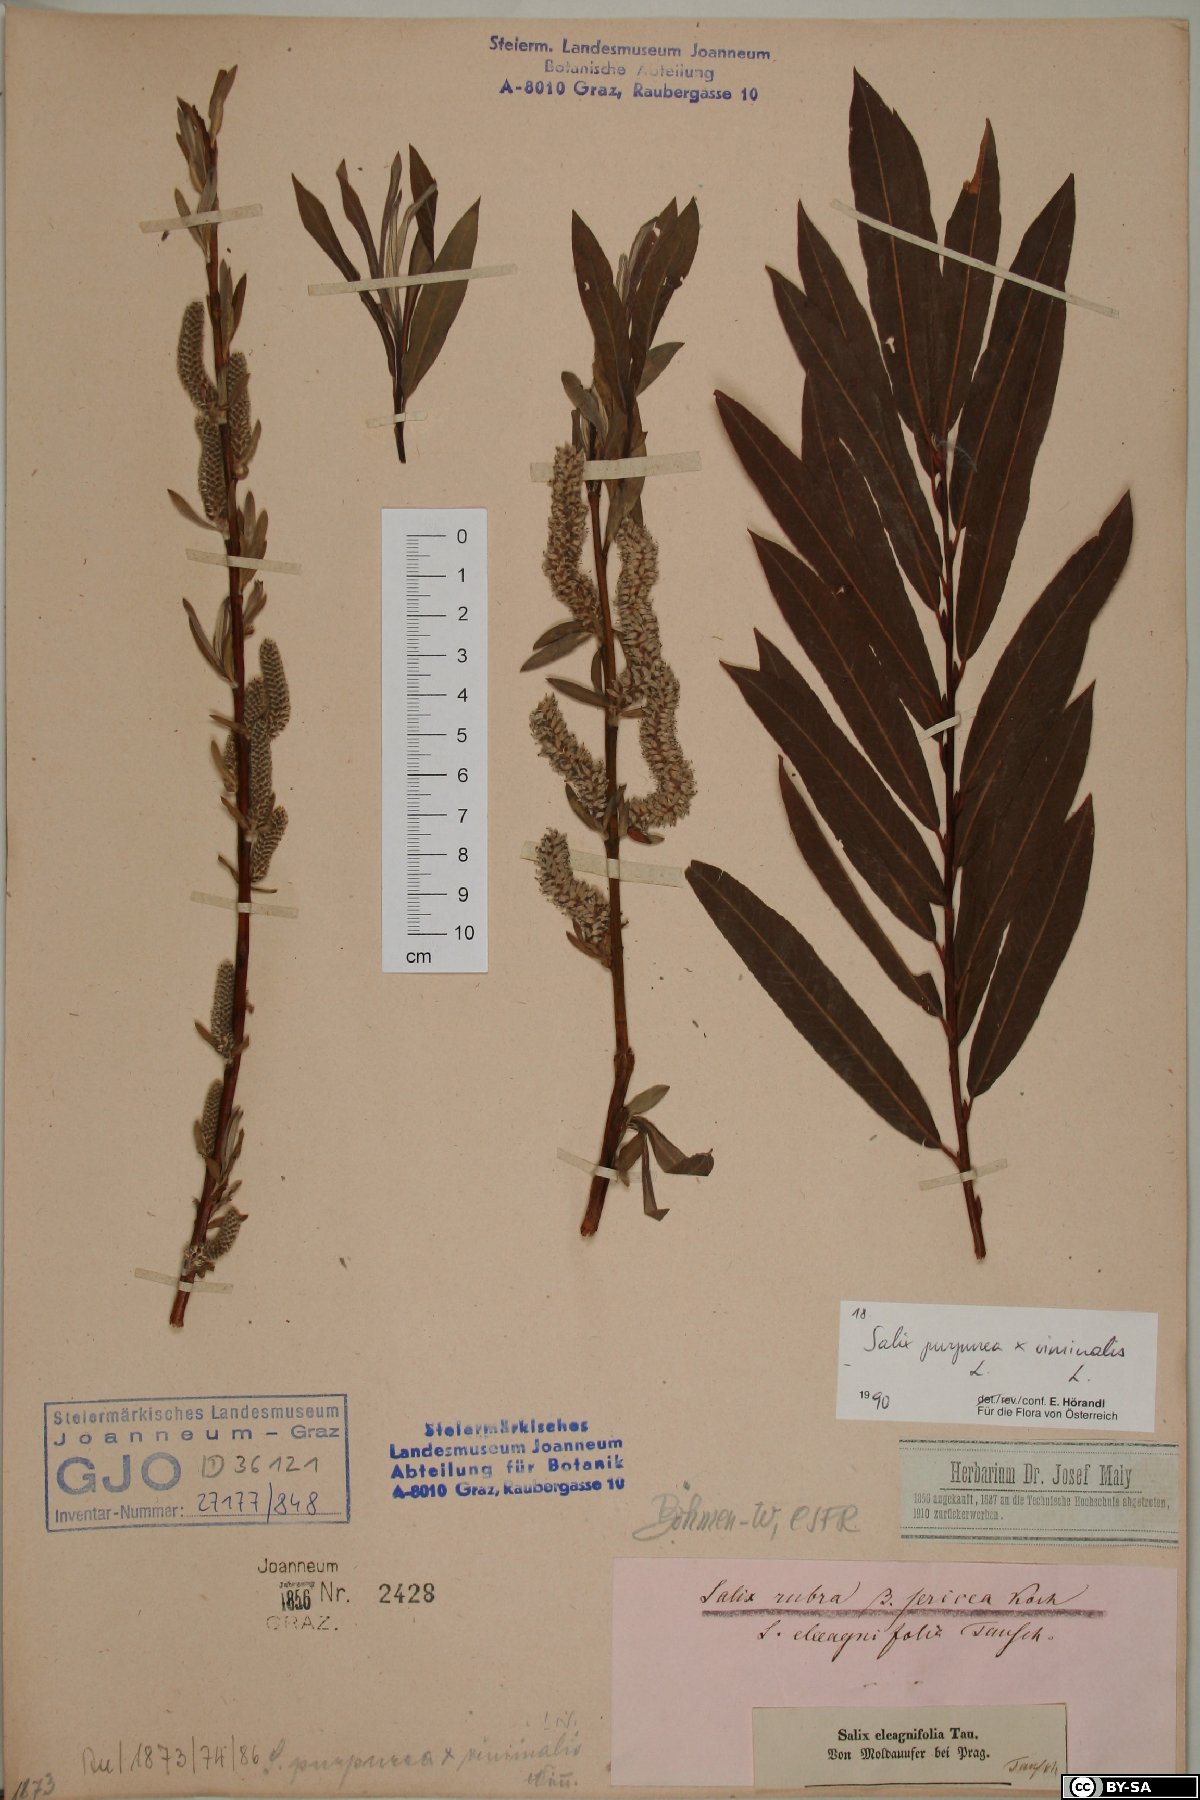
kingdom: Plantae
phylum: Tracheophyta
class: Magnoliopsida
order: Malpighiales
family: Salicaceae
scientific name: Salicaceae
